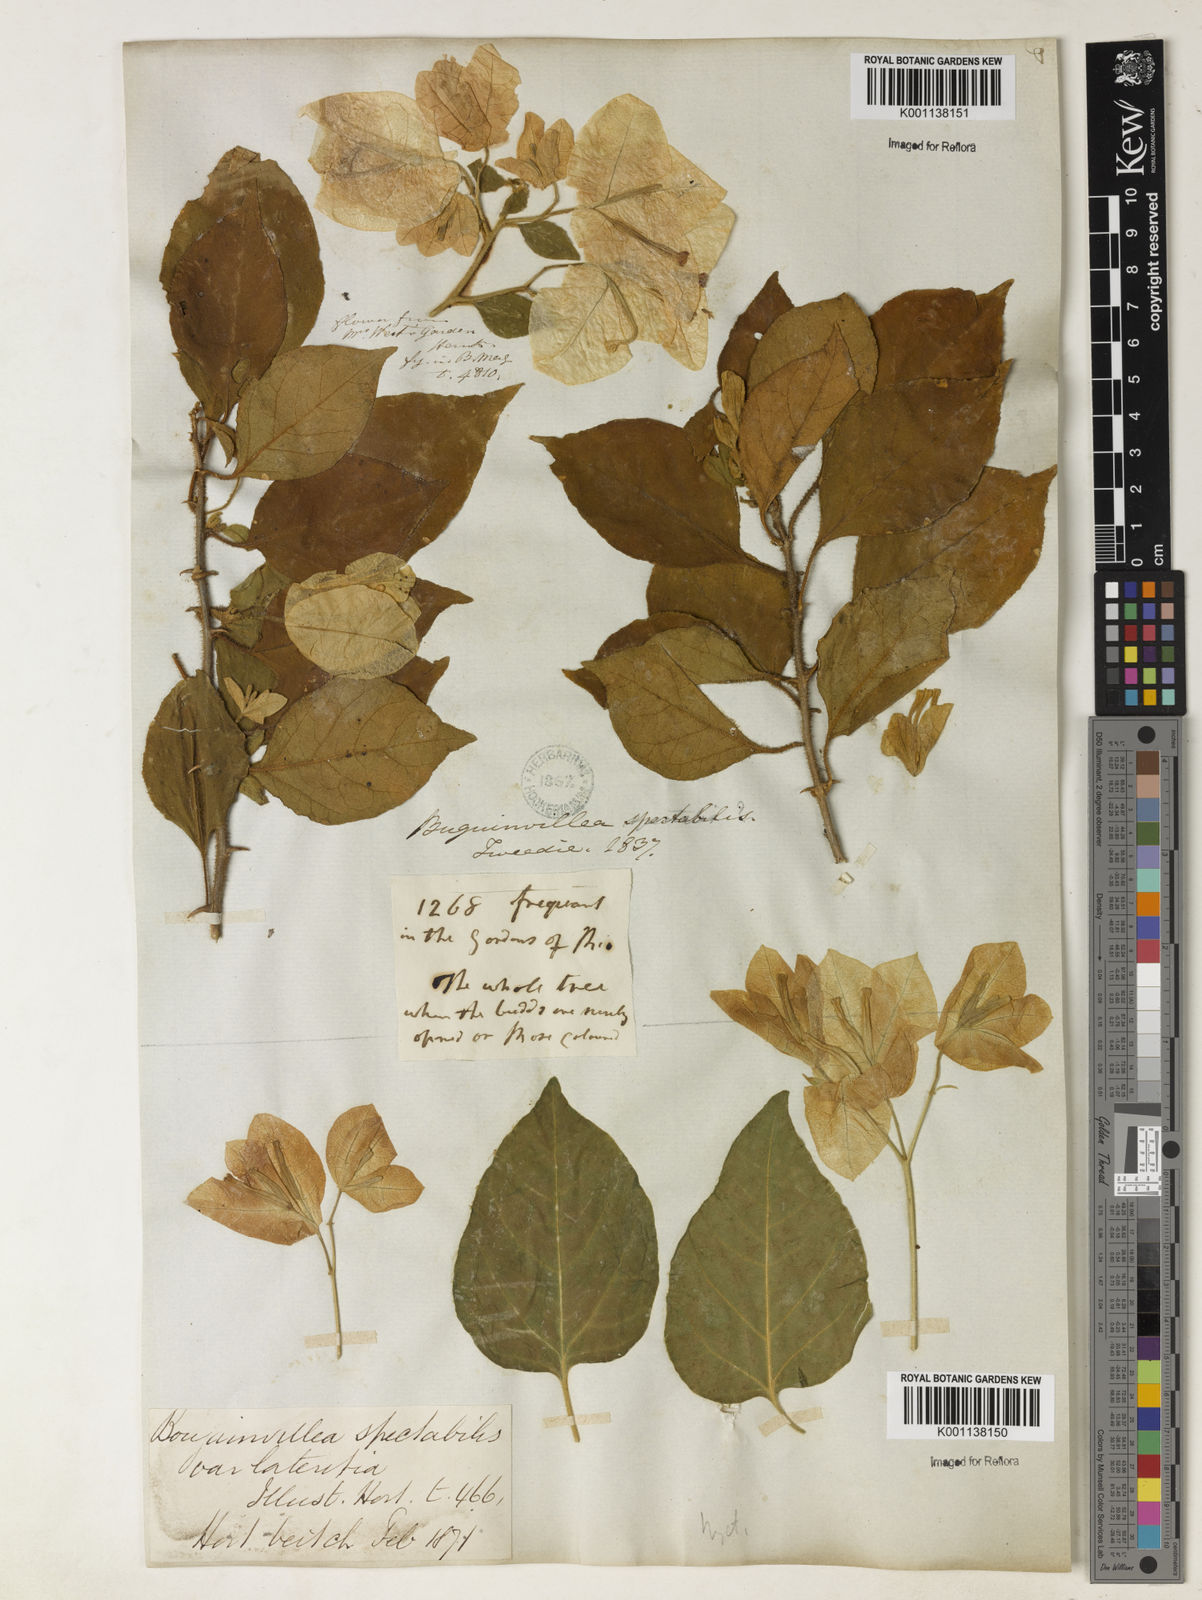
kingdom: Plantae
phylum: Tracheophyta
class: Magnoliopsida
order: Caryophyllales
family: Nyctaginaceae
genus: Bougainvillea
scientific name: Bougainvillea spectabilis
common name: Great bougainvillea
